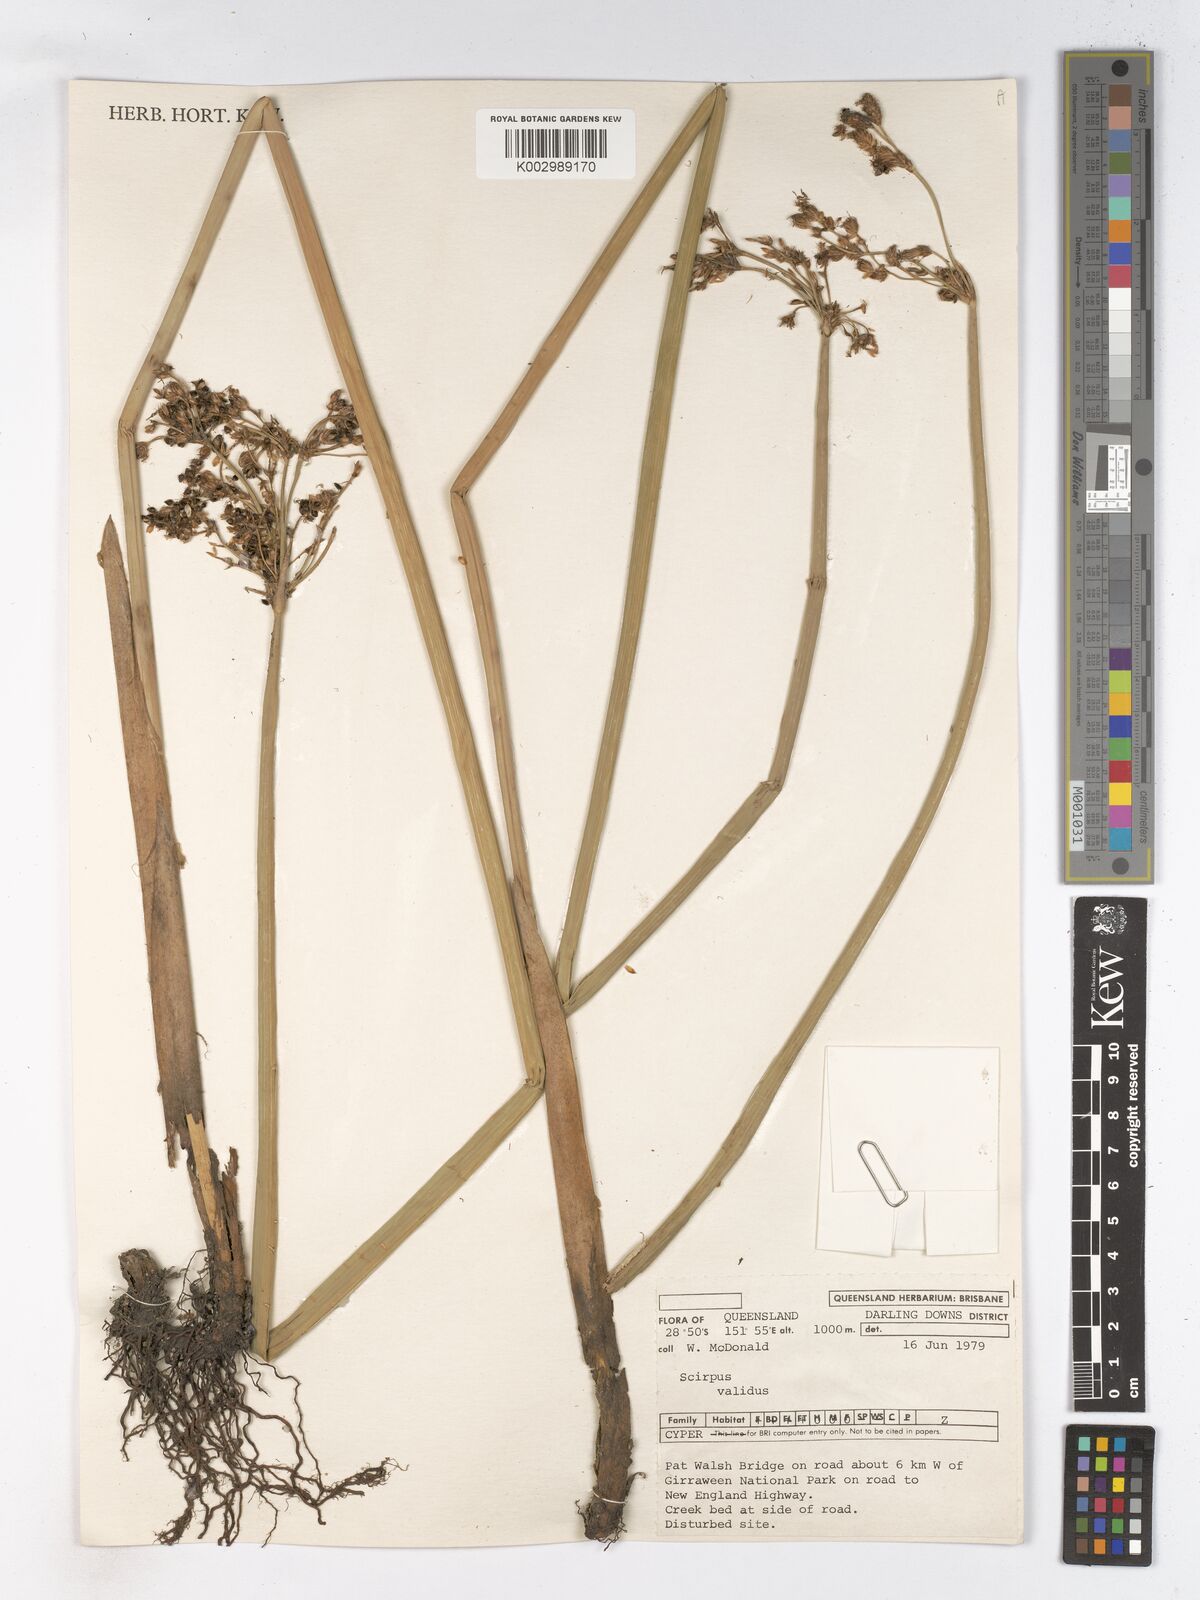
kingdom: Plantae
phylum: Tracheophyta
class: Liliopsida
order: Poales
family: Cyperaceae
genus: Schoenoplectus
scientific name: Schoenoplectus lacustris
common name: Common club-rush
